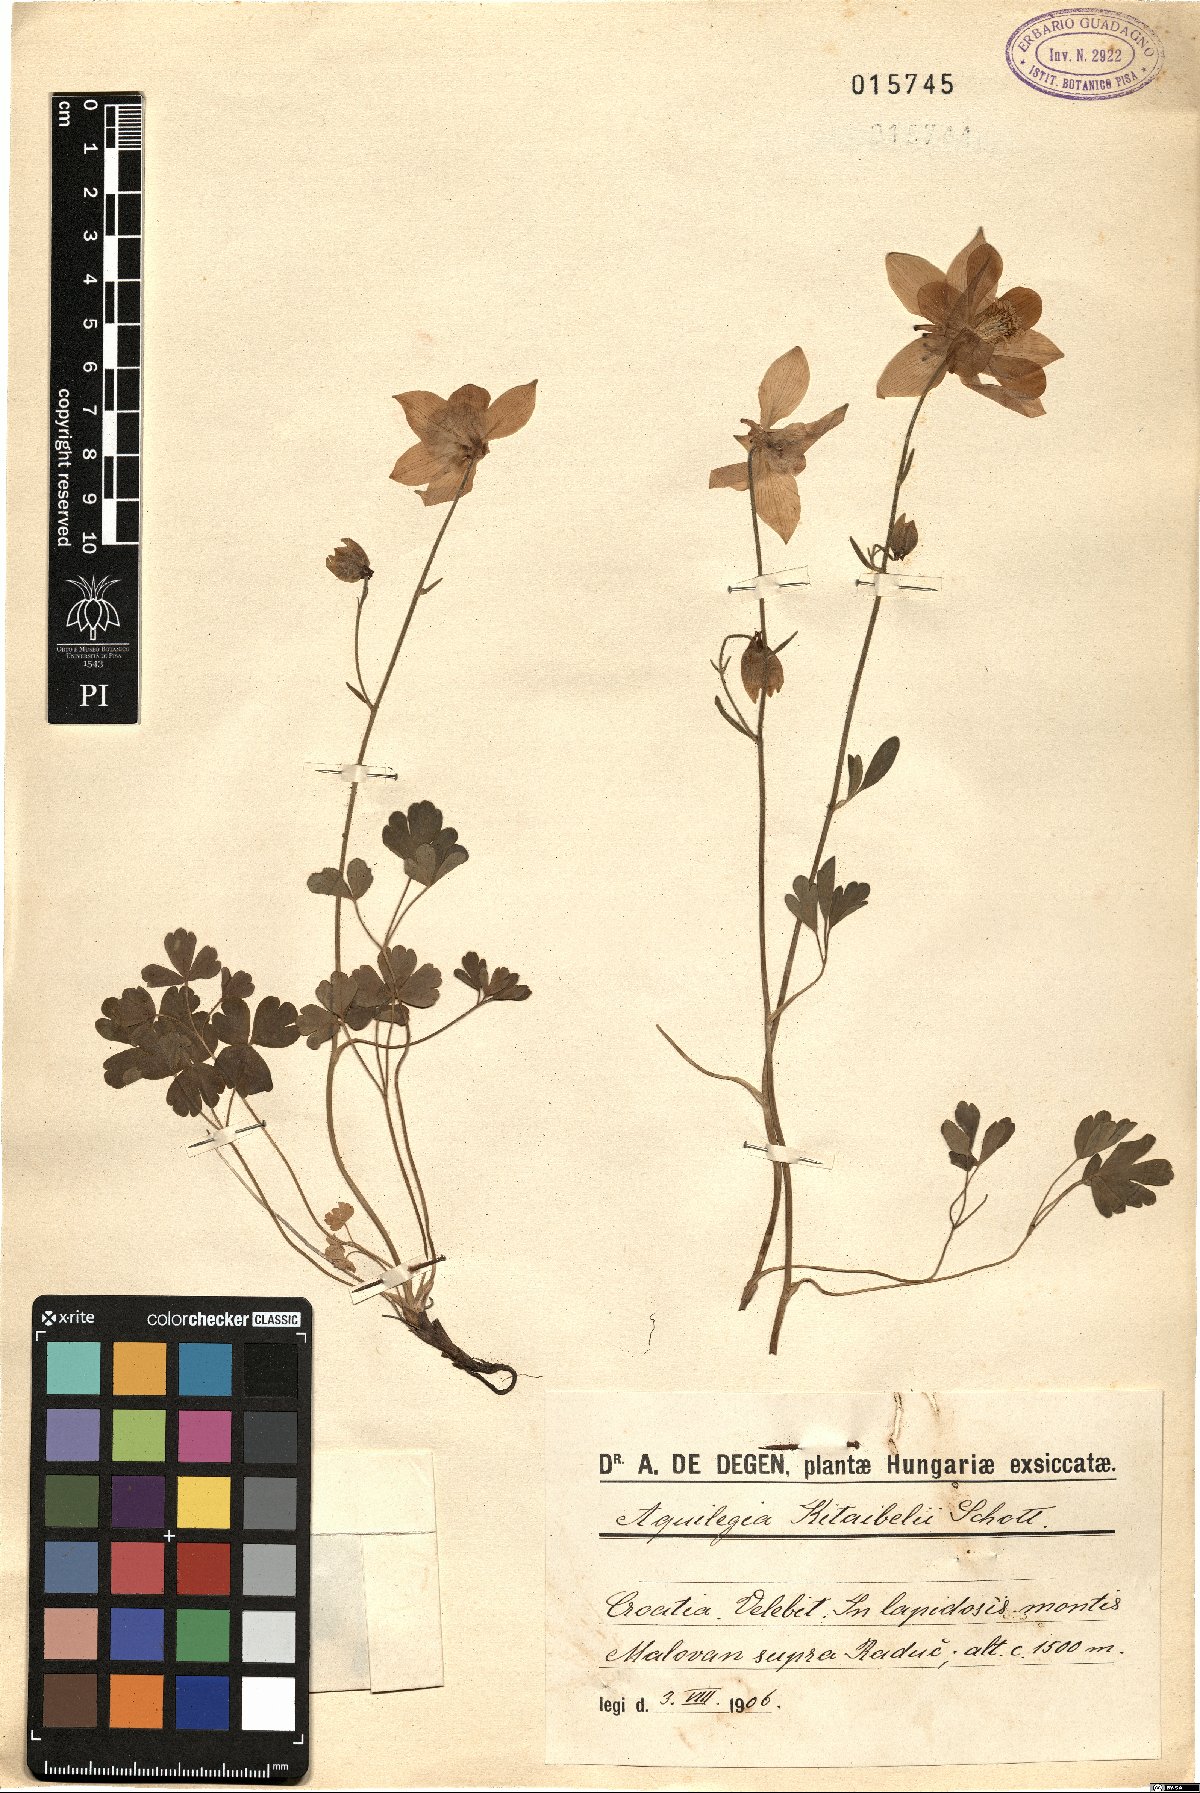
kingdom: Plantae
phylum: Tracheophyta
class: Magnoliopsida
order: Ranunculales
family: Ranunculaceae
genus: Aquilegia
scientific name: Aquilegia kitaibelii
